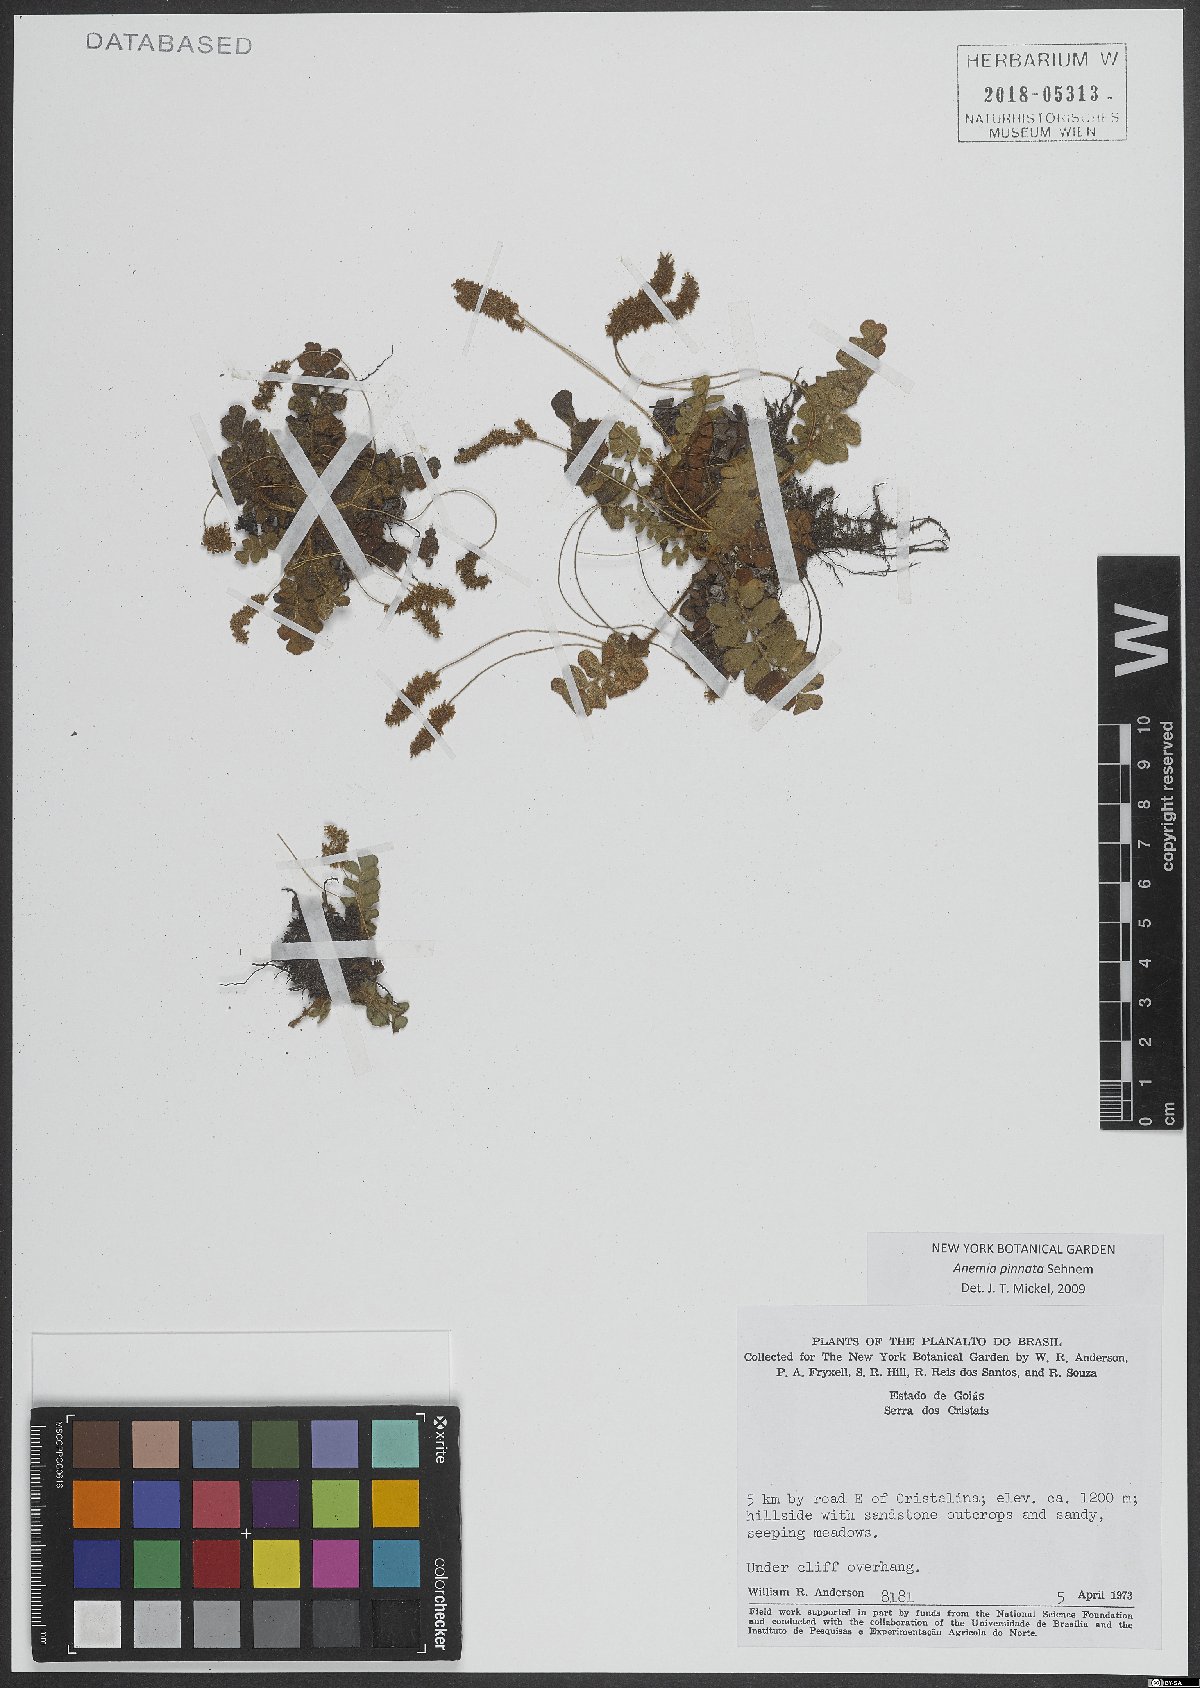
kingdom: Plantae
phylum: Tracheophyta
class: Polypodiopsida
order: Schizaeales
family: Anemiaceae
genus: Anemia
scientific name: Anemia pinnata
